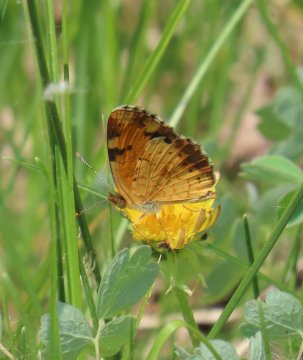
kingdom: Animalia
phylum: Arthropoda
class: Insecta
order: Lepidoptera
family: Nymphalidae
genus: Phyciodes
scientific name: Phyciodes tharos
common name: Northern Crescent
